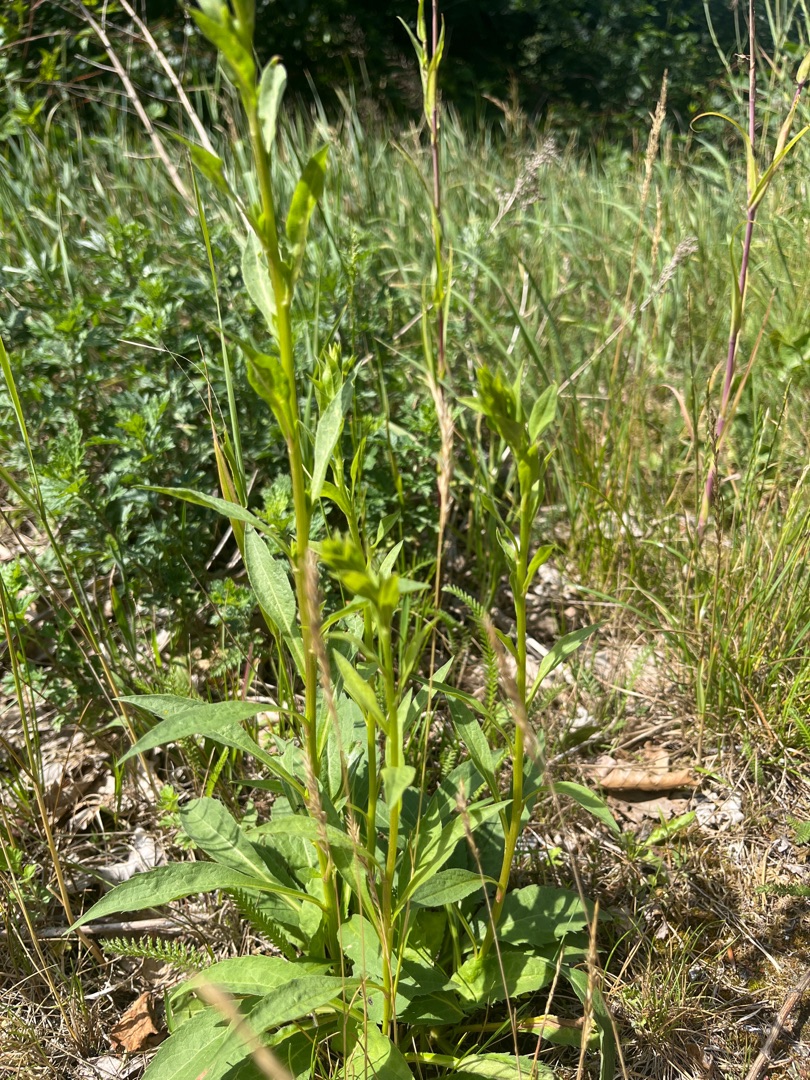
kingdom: Plantae
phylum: Tracheophyta
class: Magnoliopsida
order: Asterales
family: Asteraceae
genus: Solidago
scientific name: Solidago virgaurea
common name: Almindelig gyldenris
